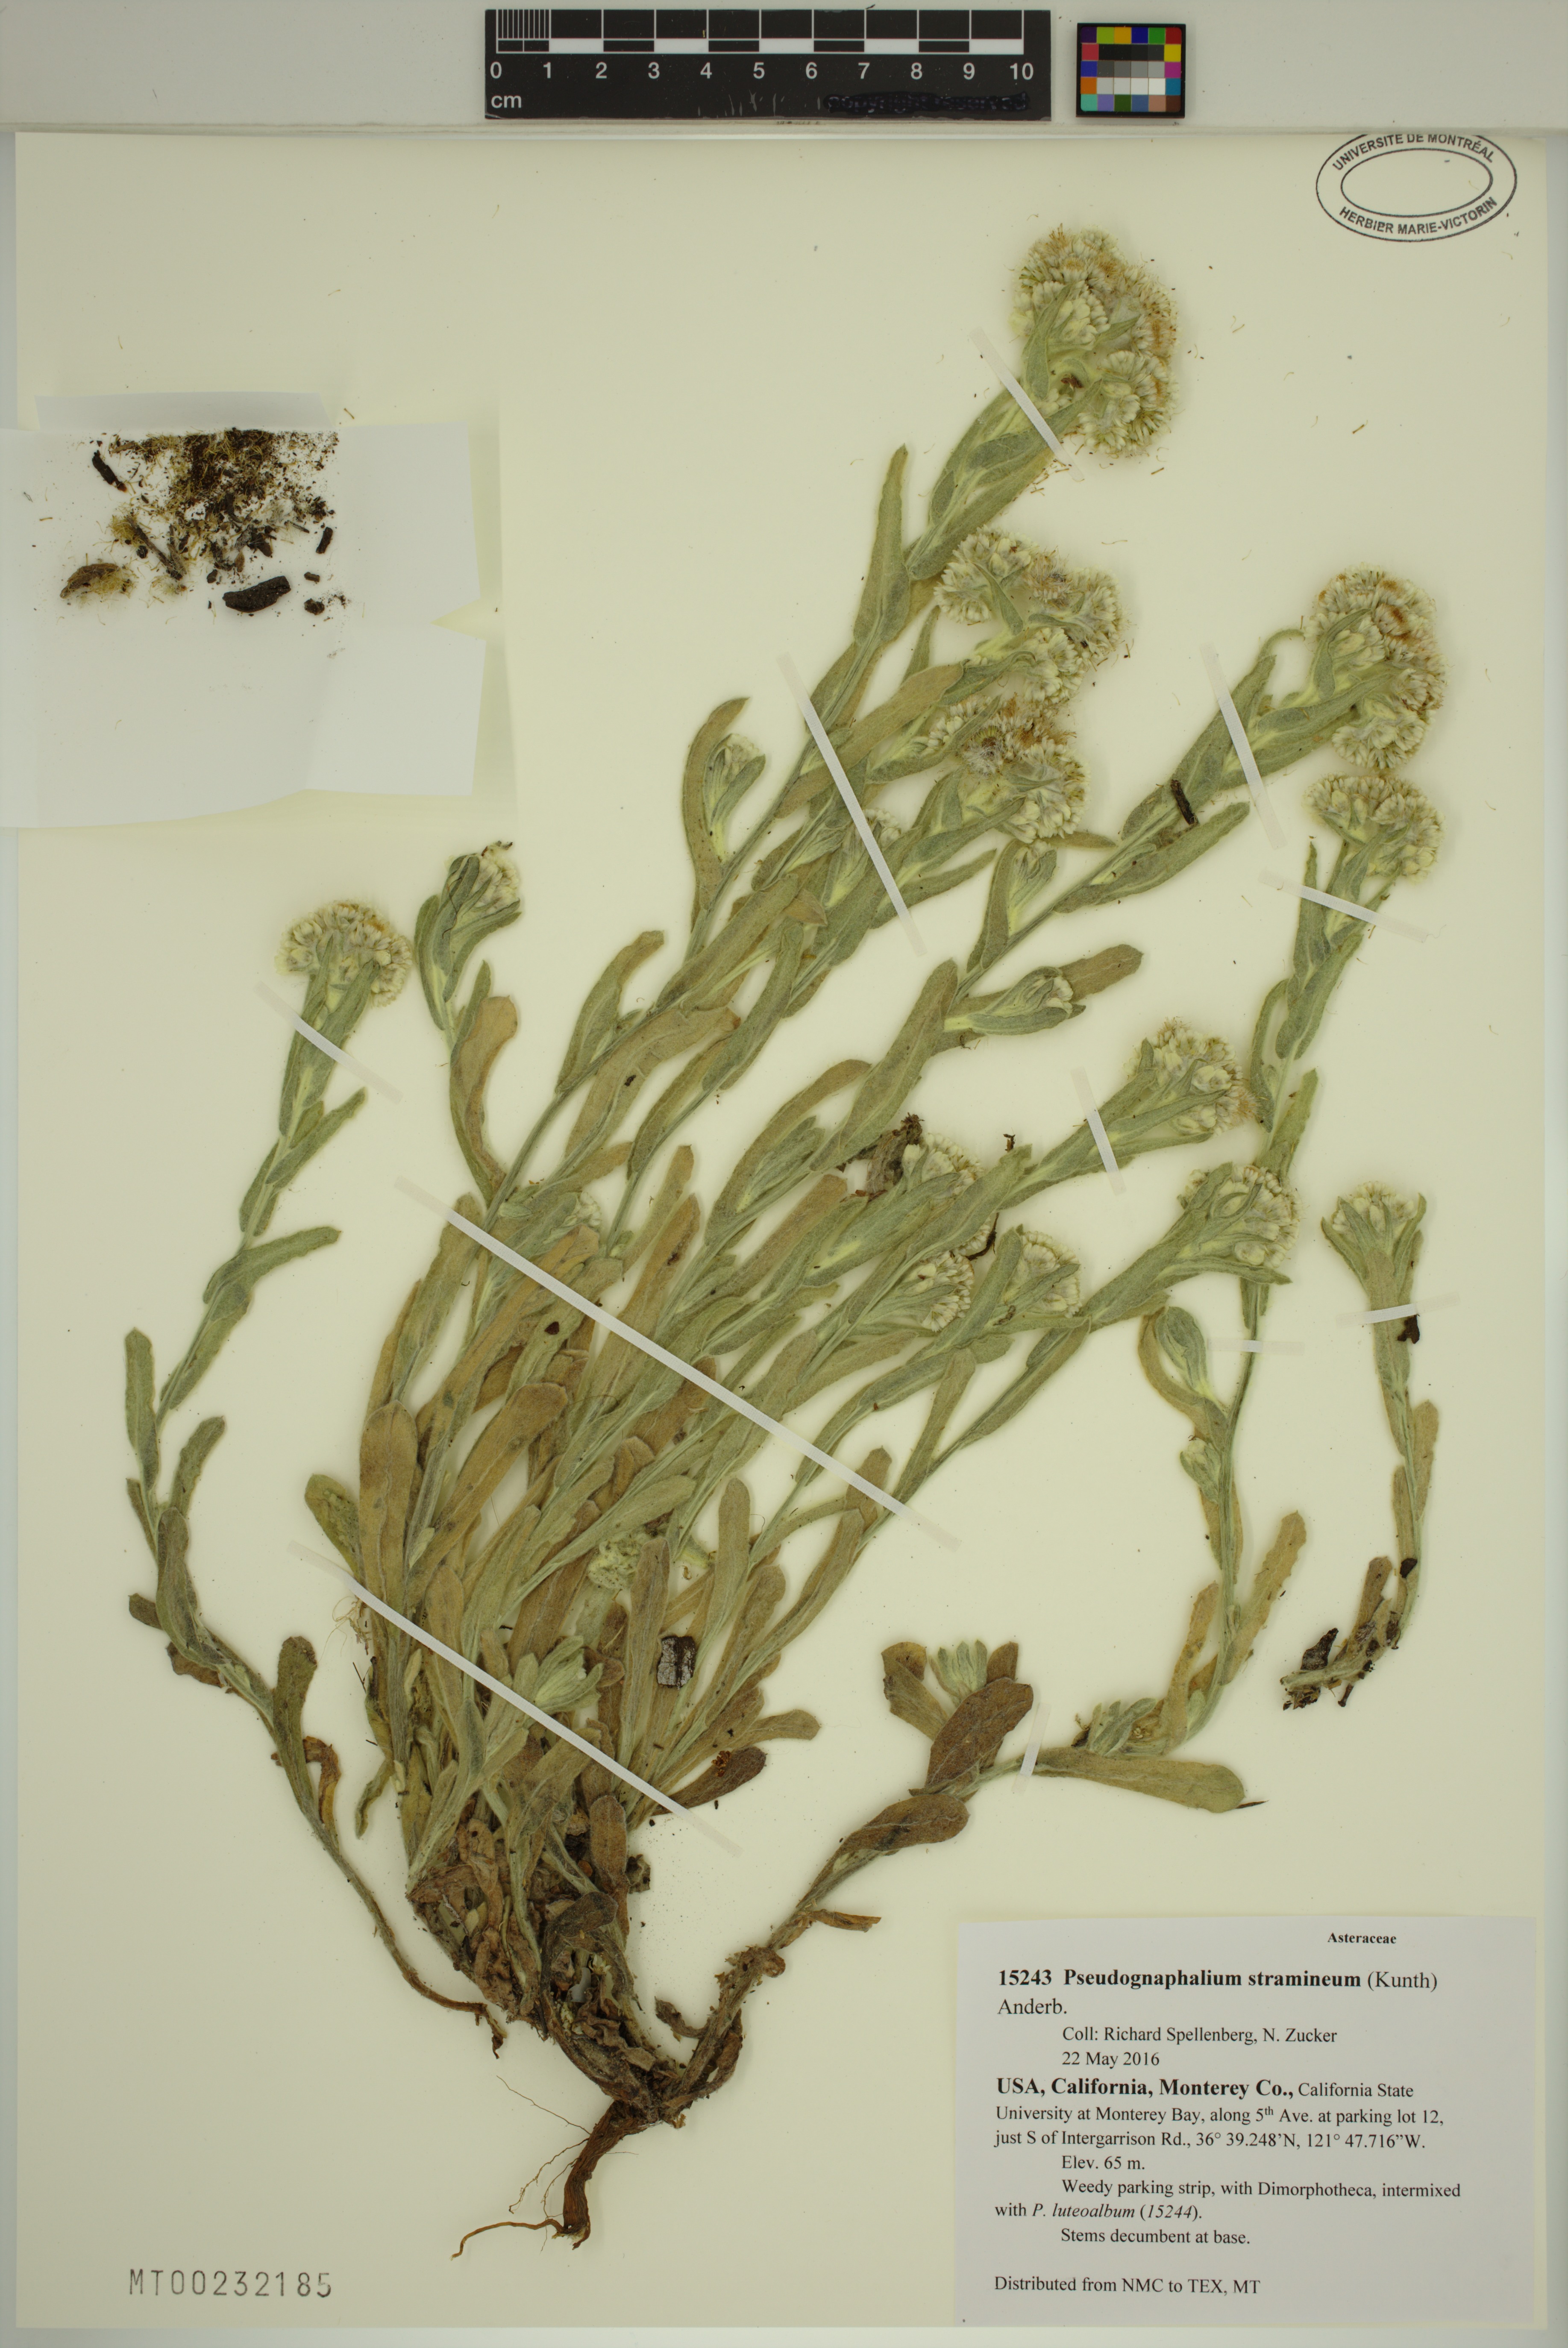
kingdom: Plantae
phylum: Tracheophyta
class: Magnoliopsida
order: Asterales
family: Asteraceae
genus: Pseudognaphalium
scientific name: Pseudognaphalium stramineum
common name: Cotton-batting-plant
